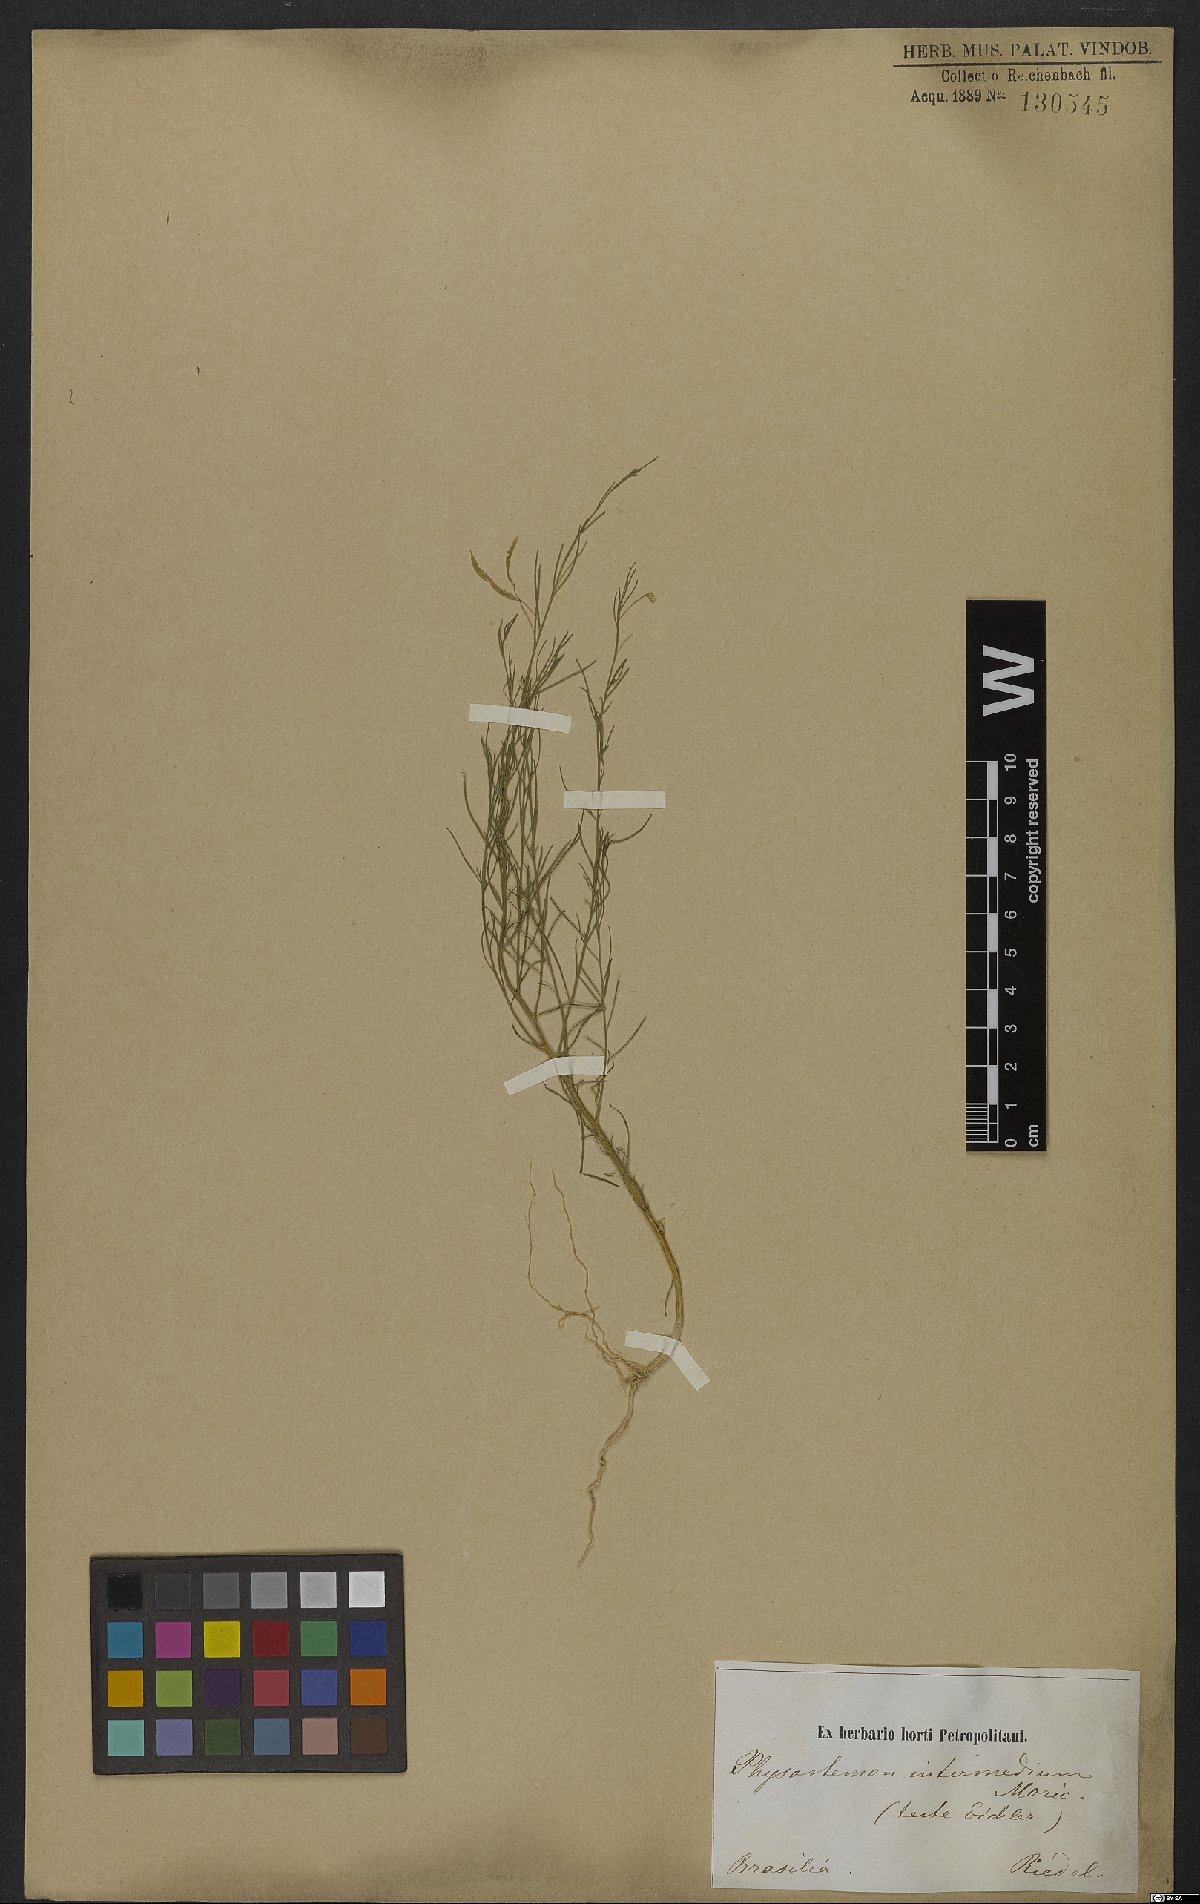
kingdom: Plantae
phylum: Tracheophyta
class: Magnoliopsida
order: Brassicales
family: Cleomaceae
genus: Andinocleome
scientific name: Andinocleome anomala
